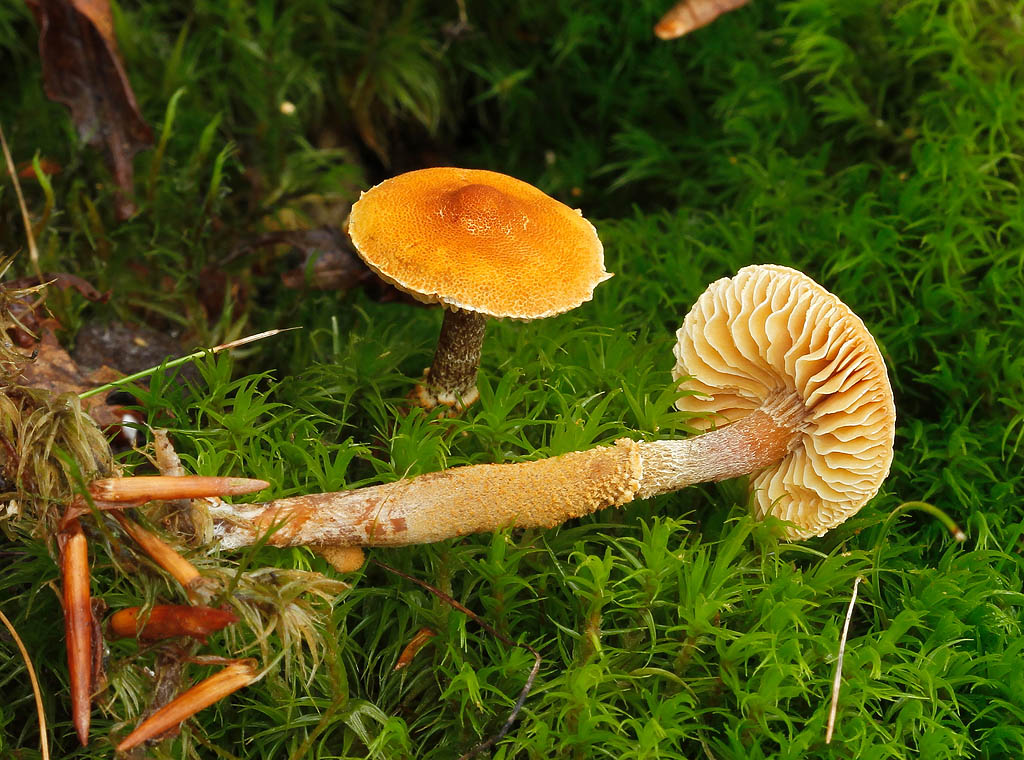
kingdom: Fungi
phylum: Basidiomycota
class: Agaricomycetes
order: Agaricales
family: Tricholomataceae
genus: Cystoderma
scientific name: Cystoderma jasonis
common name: gulkødet grynhat
